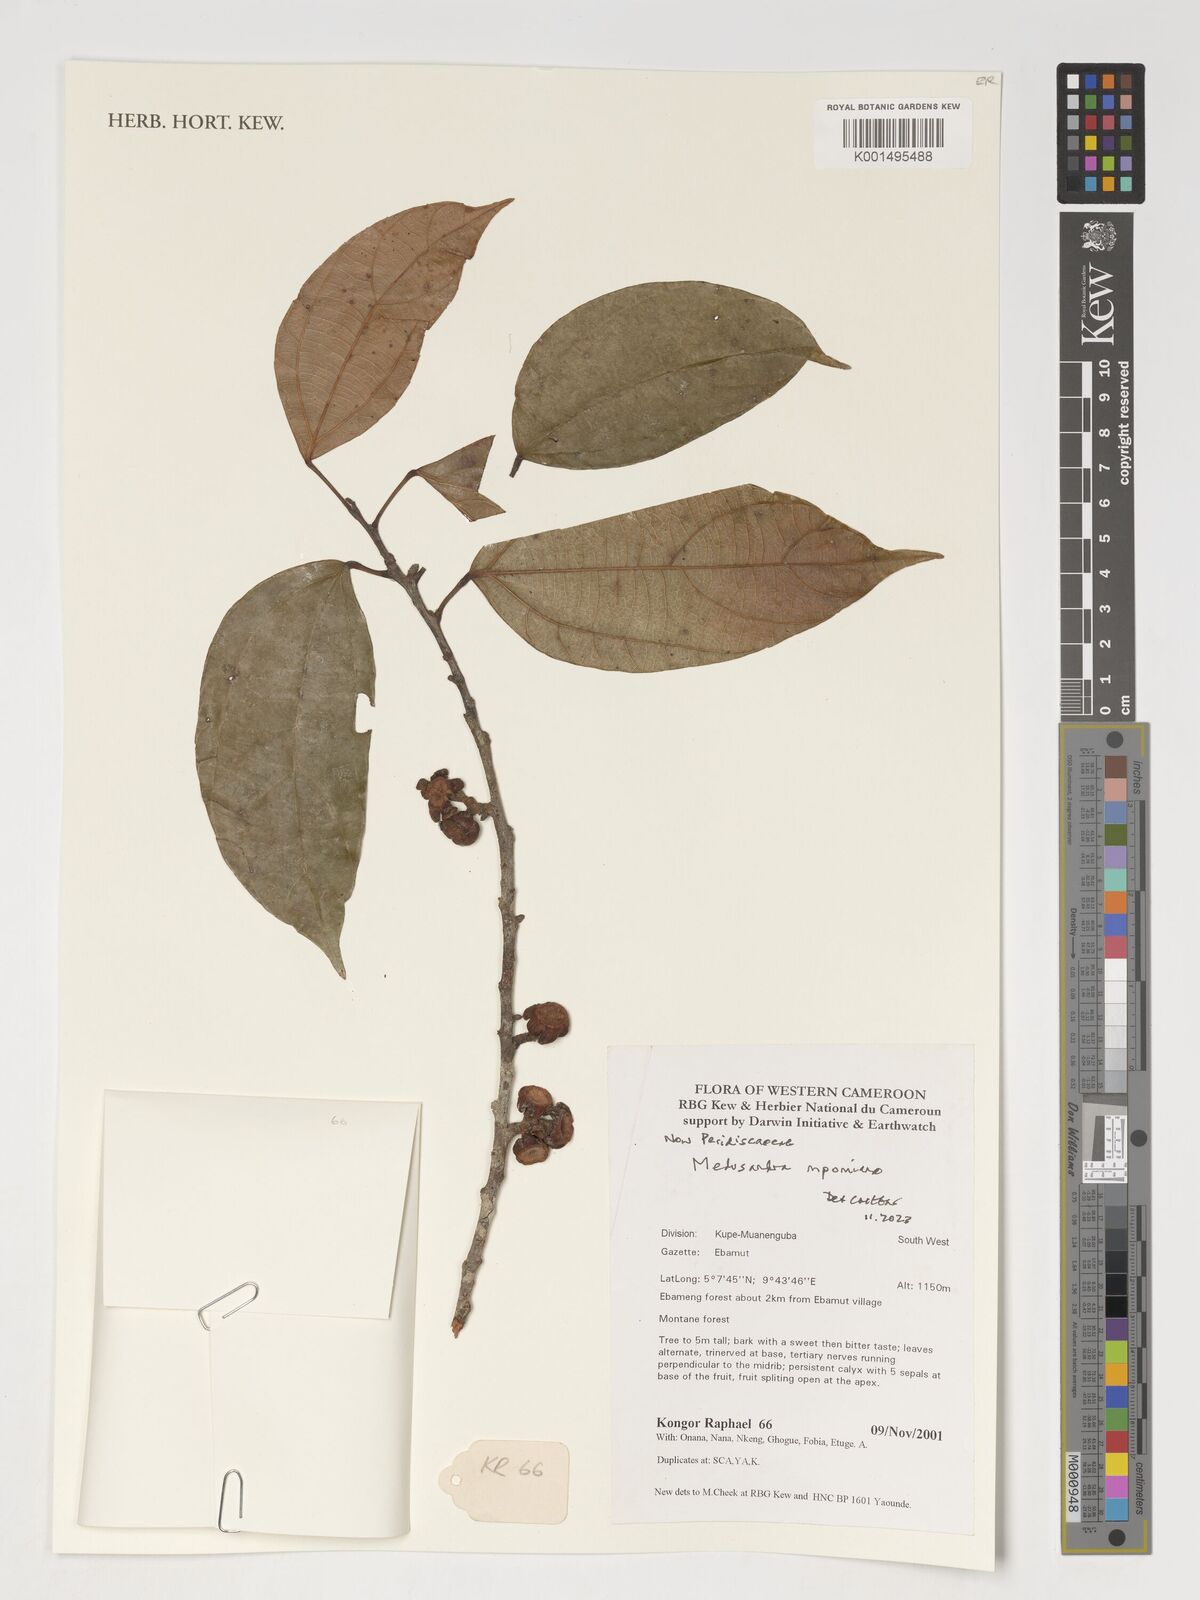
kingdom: Plantae
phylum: Tracheophyta
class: Magnoliopsida
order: Saxifragales
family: Peridiscaceae
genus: Medusandra
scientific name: Medusandra mpomiana
